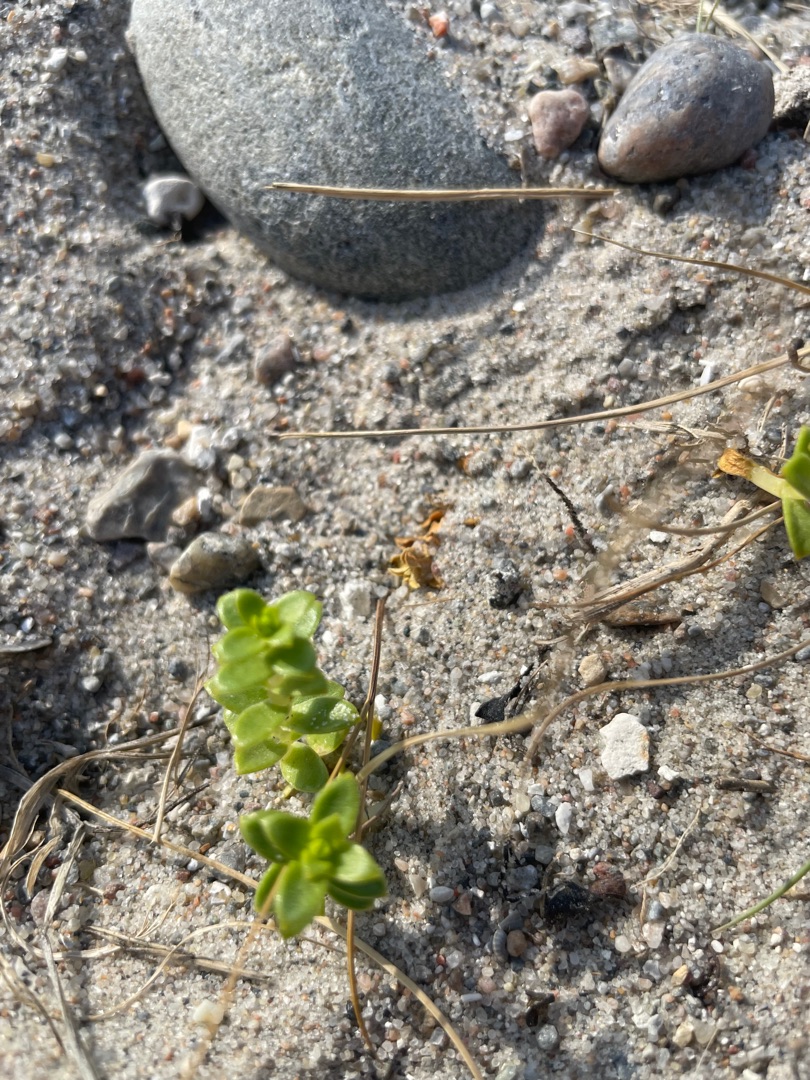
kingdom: Plantae
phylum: Tracheophyta
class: Magnoliopsida
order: Caryophyllales
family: Caryophyllaceae
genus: Honckenya
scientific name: Honckenya peploides
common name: Strandarve
